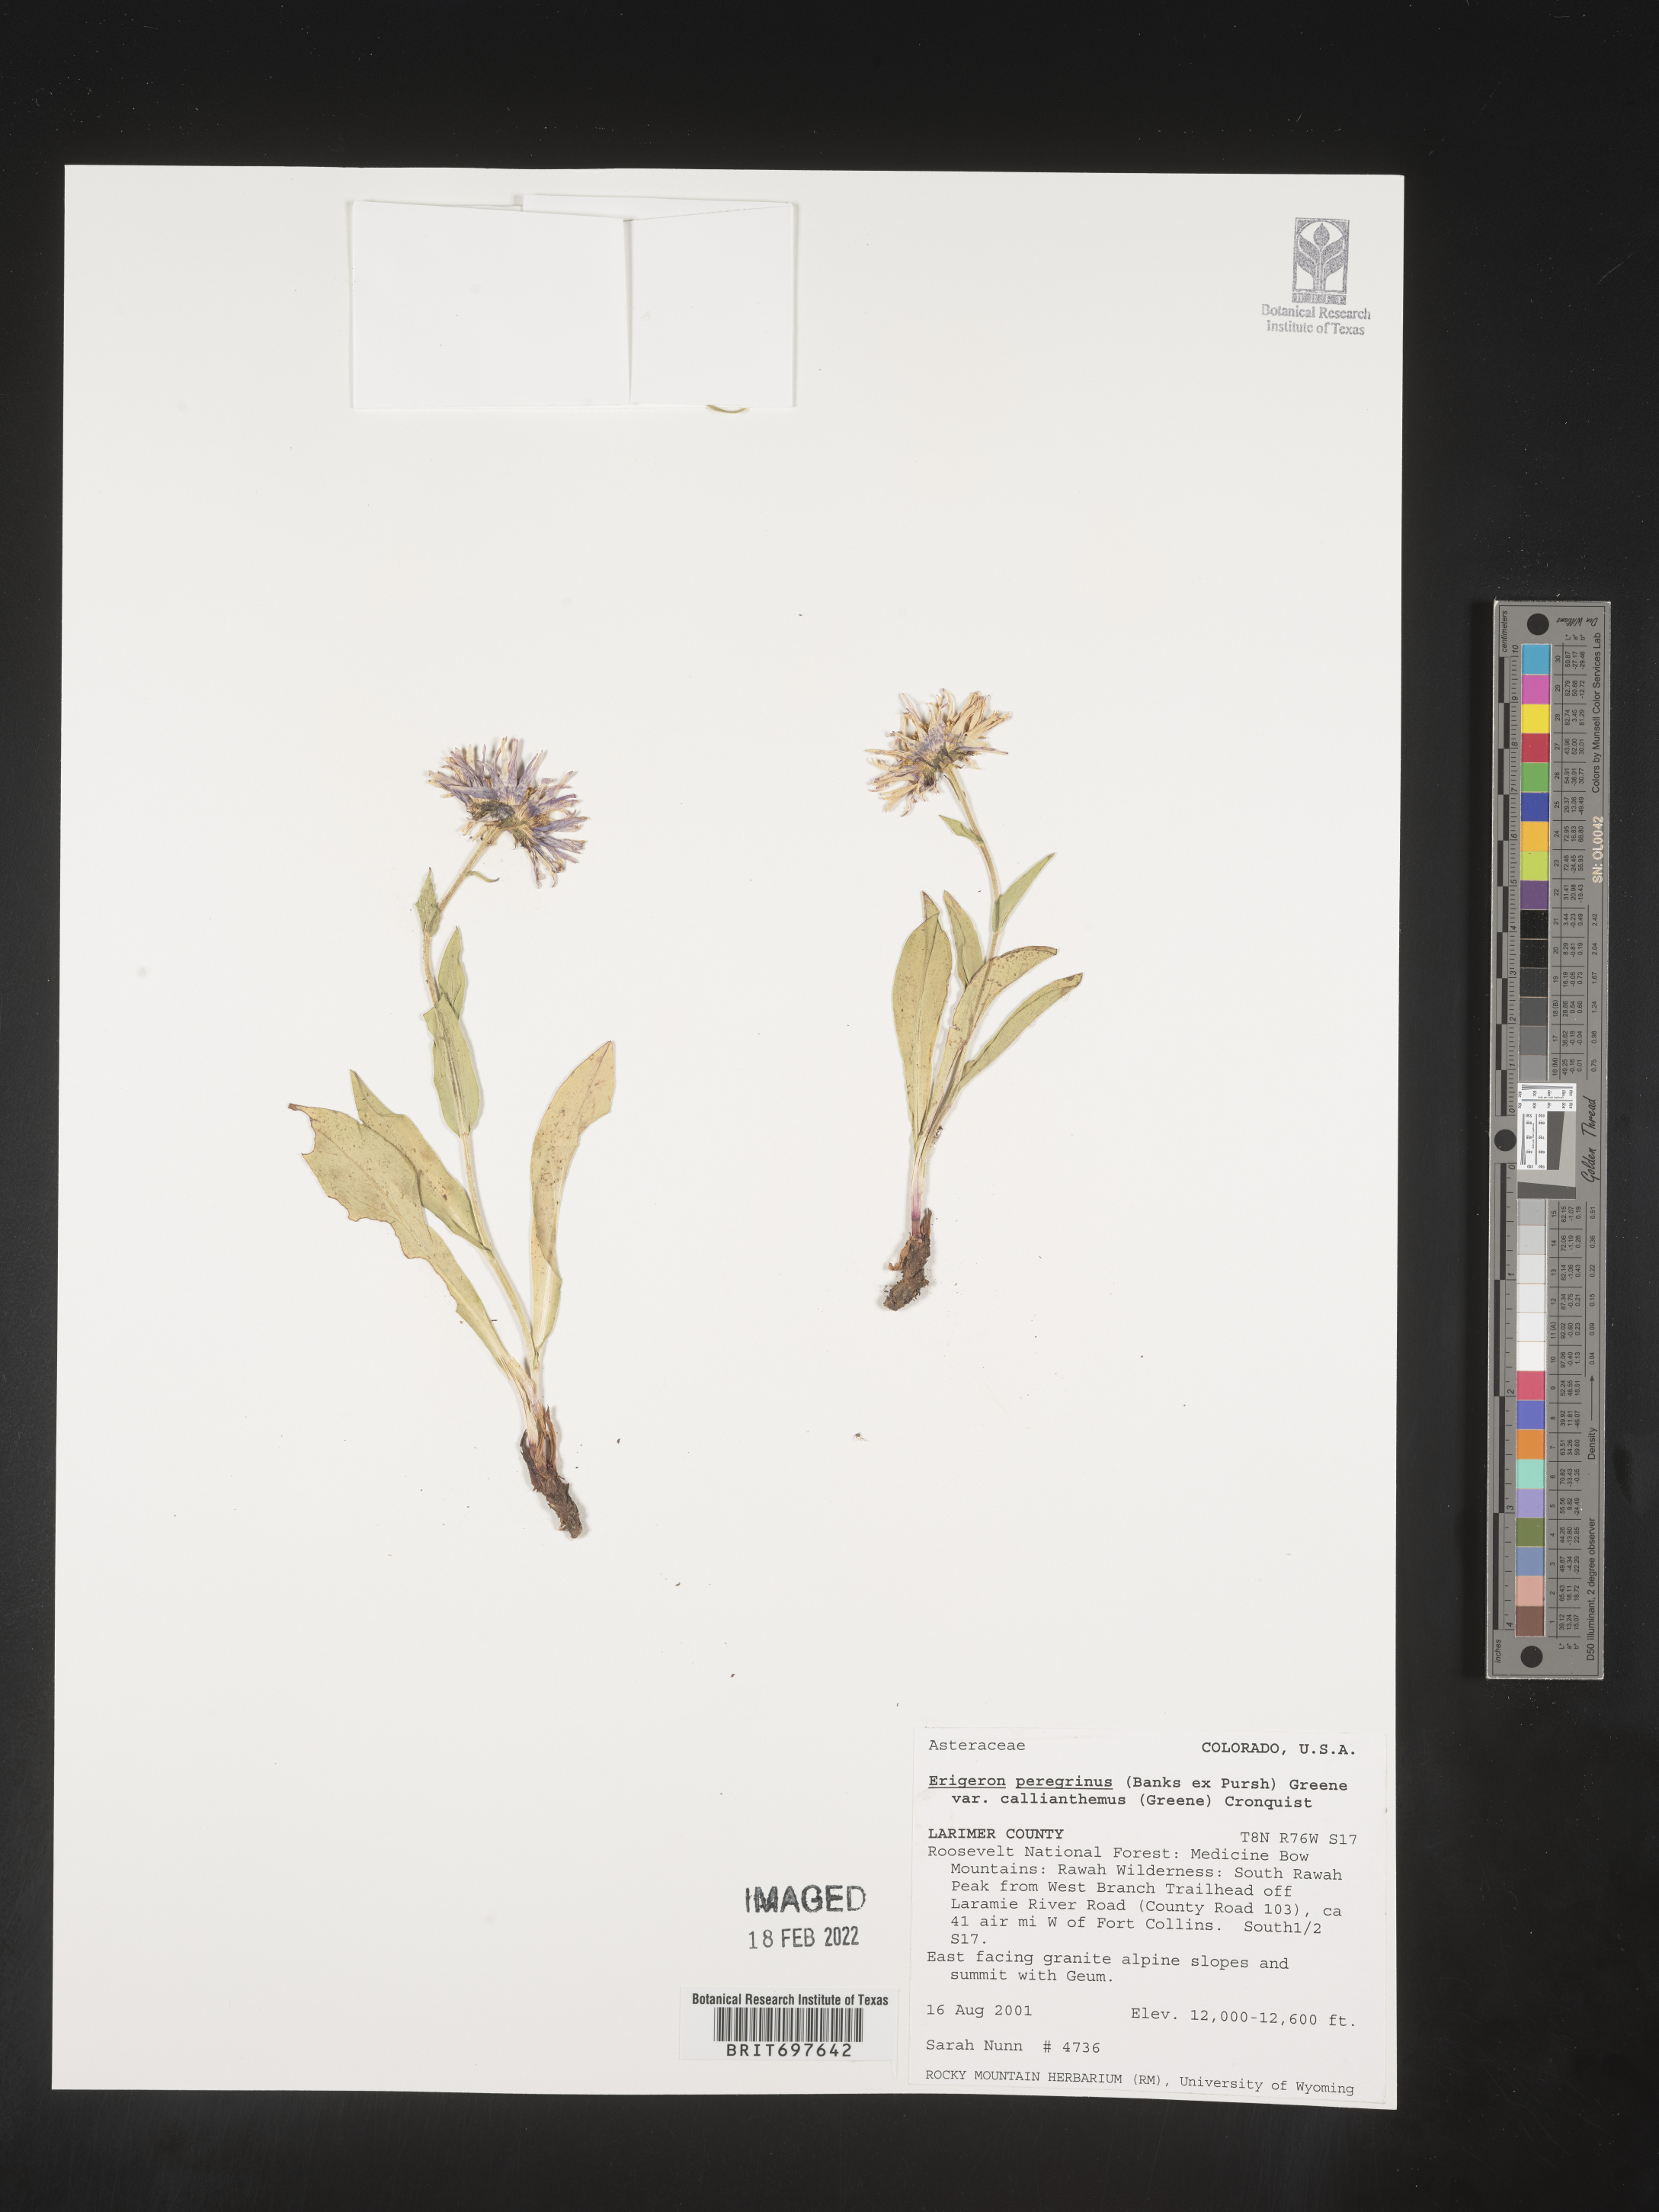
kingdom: Plantae
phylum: Tracheophyta
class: Magnoliopsida
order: Asterales
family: Asteraceae
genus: Erigeron
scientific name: Erigeron peregrinus
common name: Peregrine fleabane
